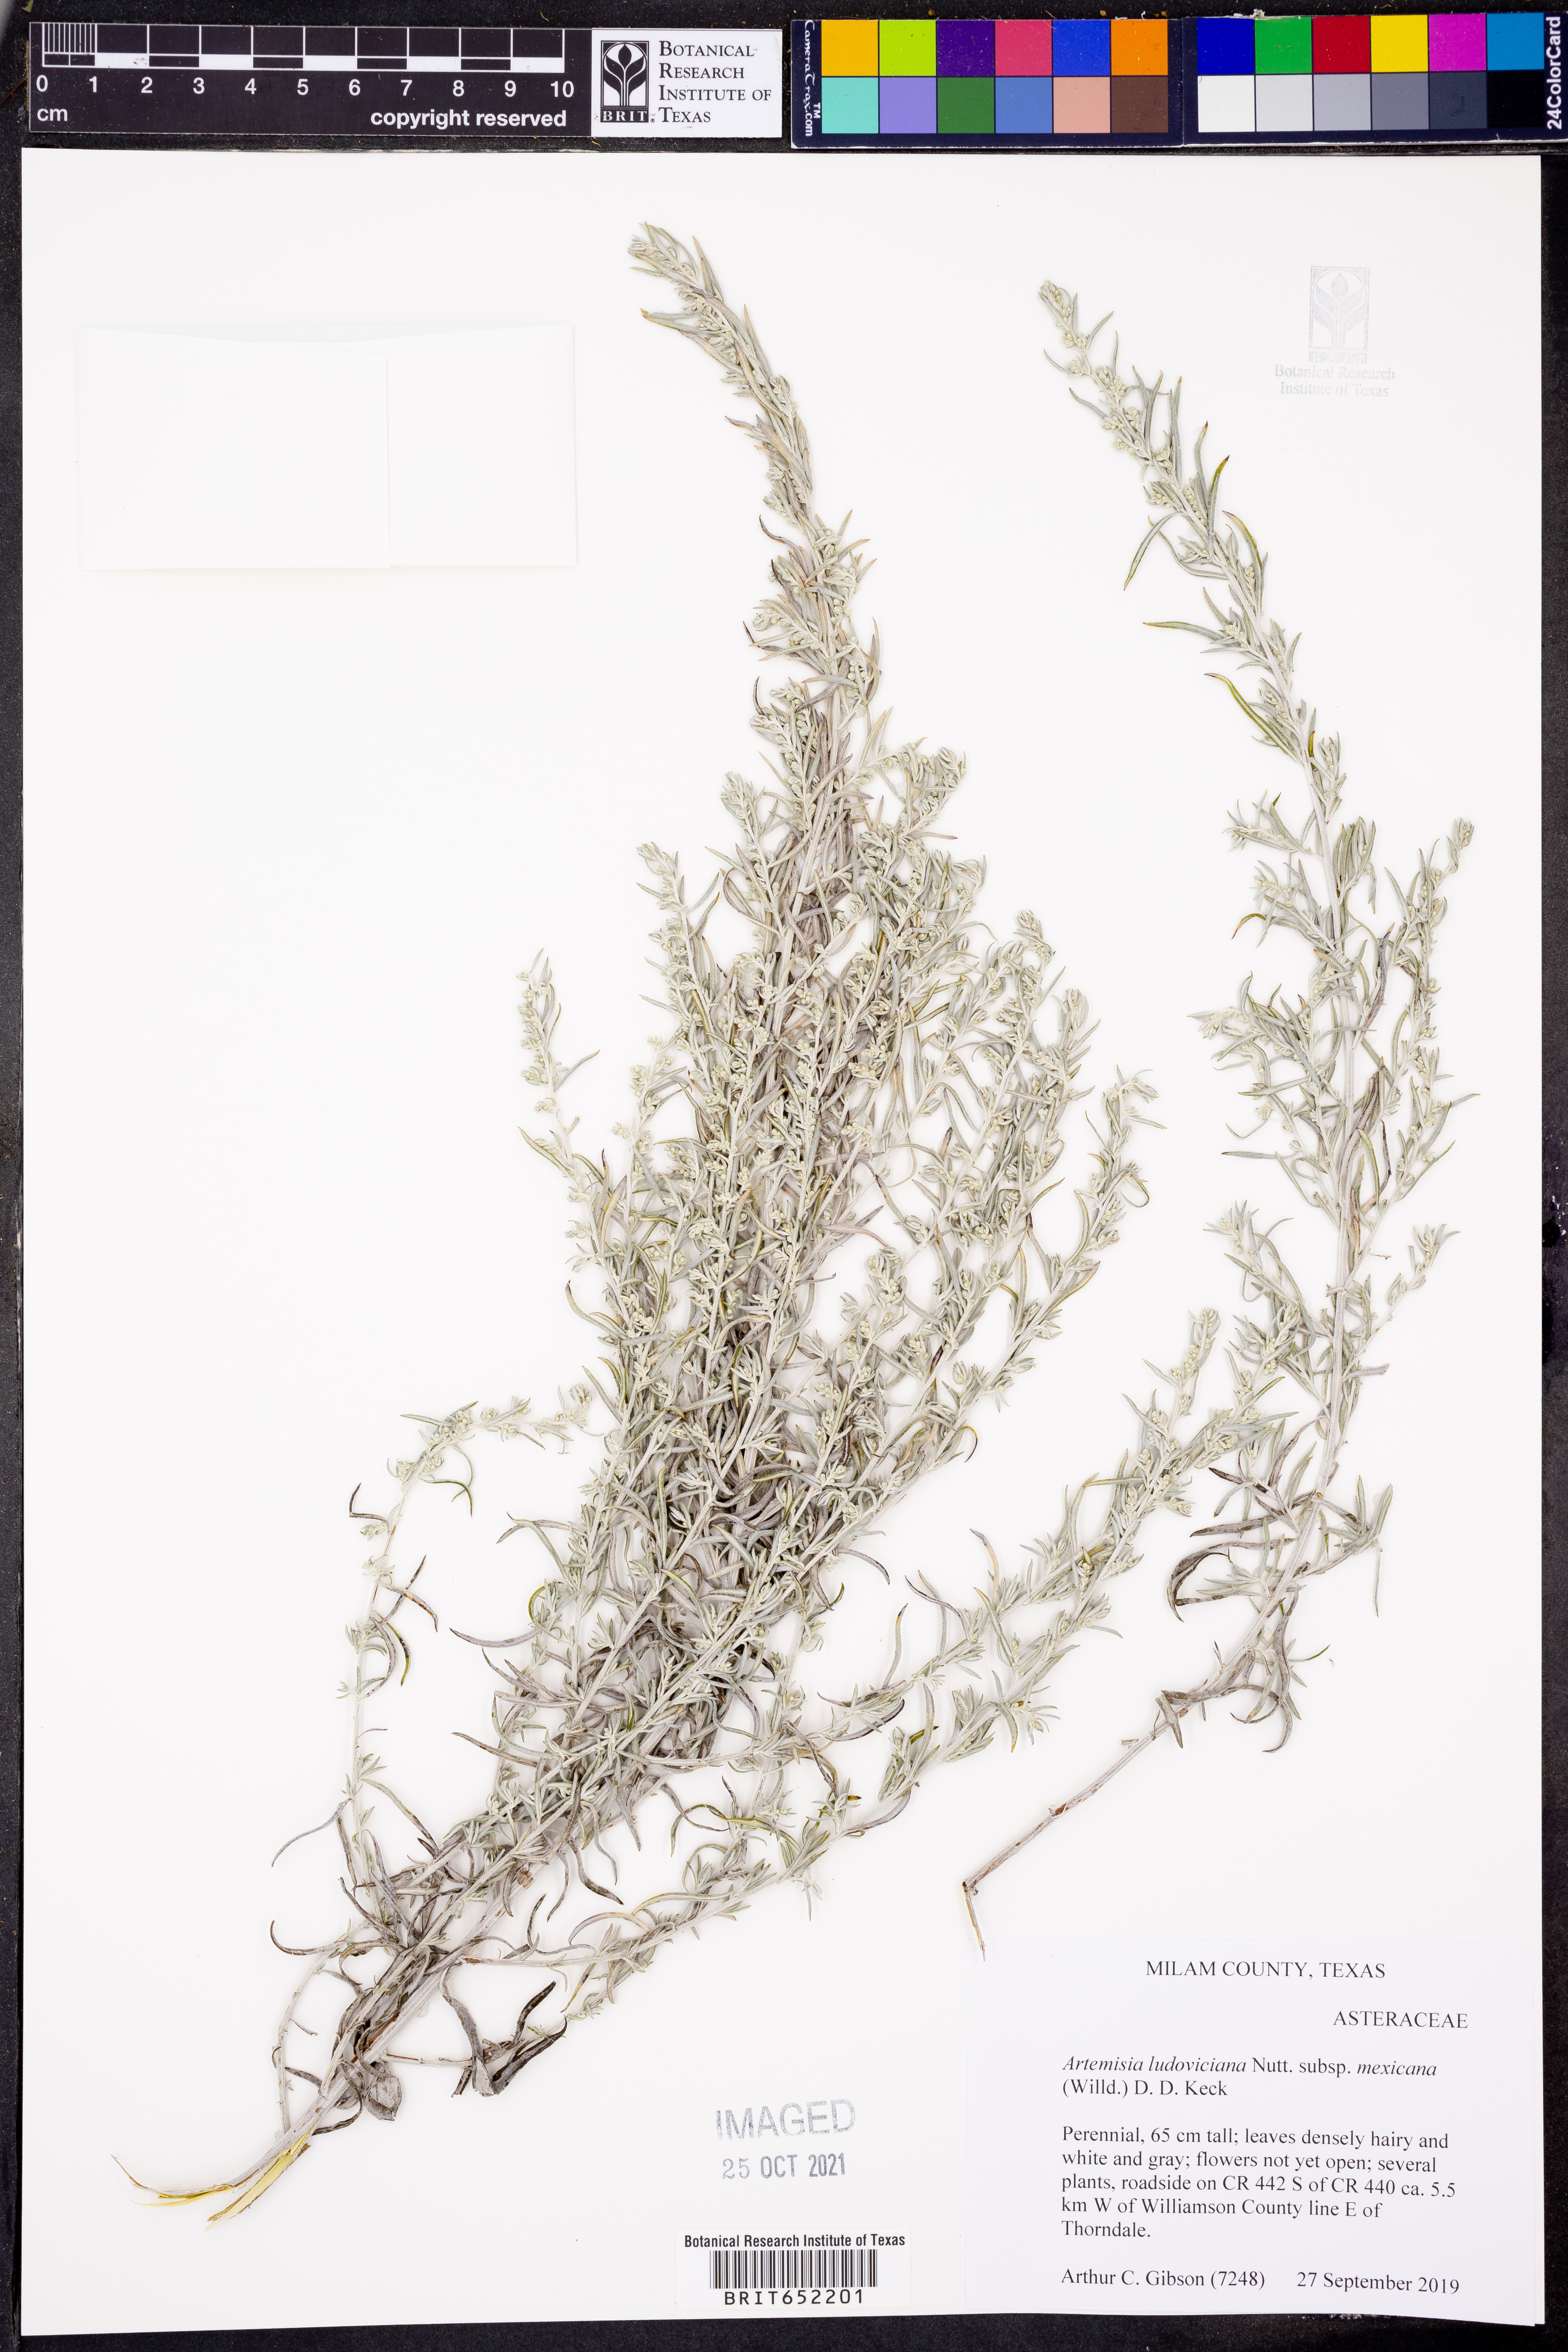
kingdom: Plantae
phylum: Tracheophyta
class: Magnoliopsida
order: Asterales
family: Asteraceae
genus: Artemisia
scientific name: Artemisia ludoviciana
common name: Western mugwort
